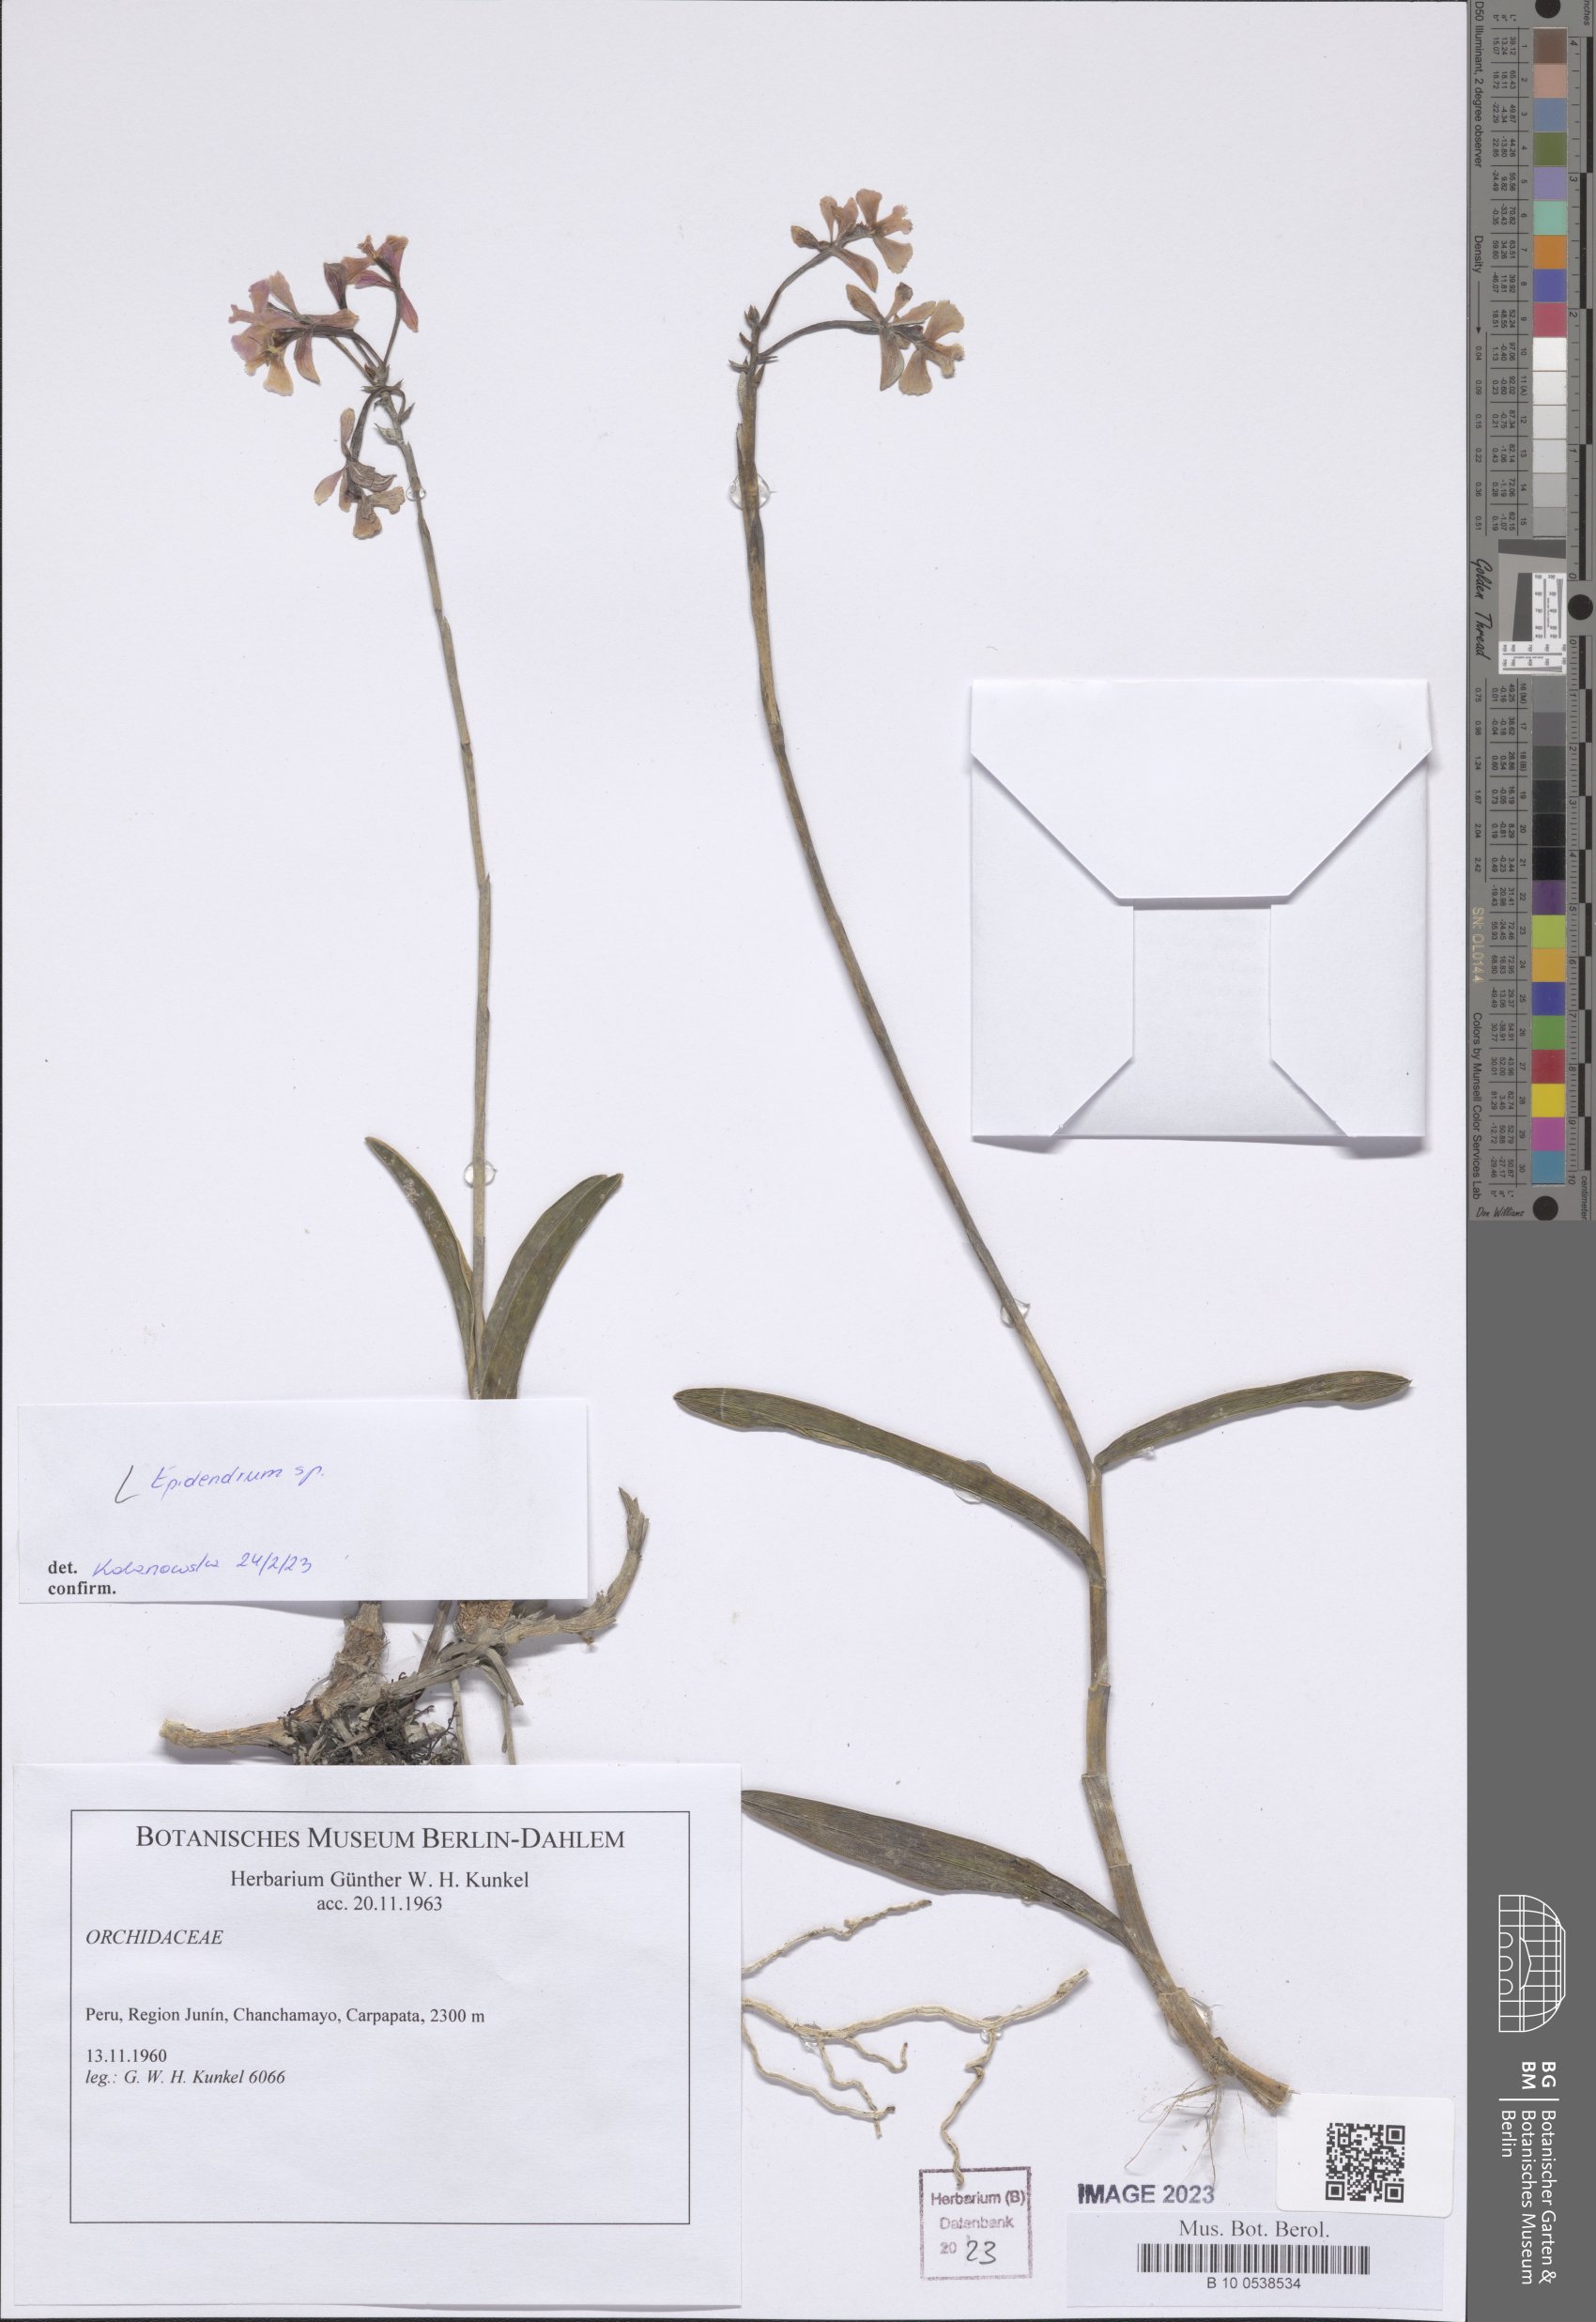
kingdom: Plantae
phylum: Tracheophyta
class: Liliopsida
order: Asparagales
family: Orchidaceae
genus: Epidendrum
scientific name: Epidendrum
